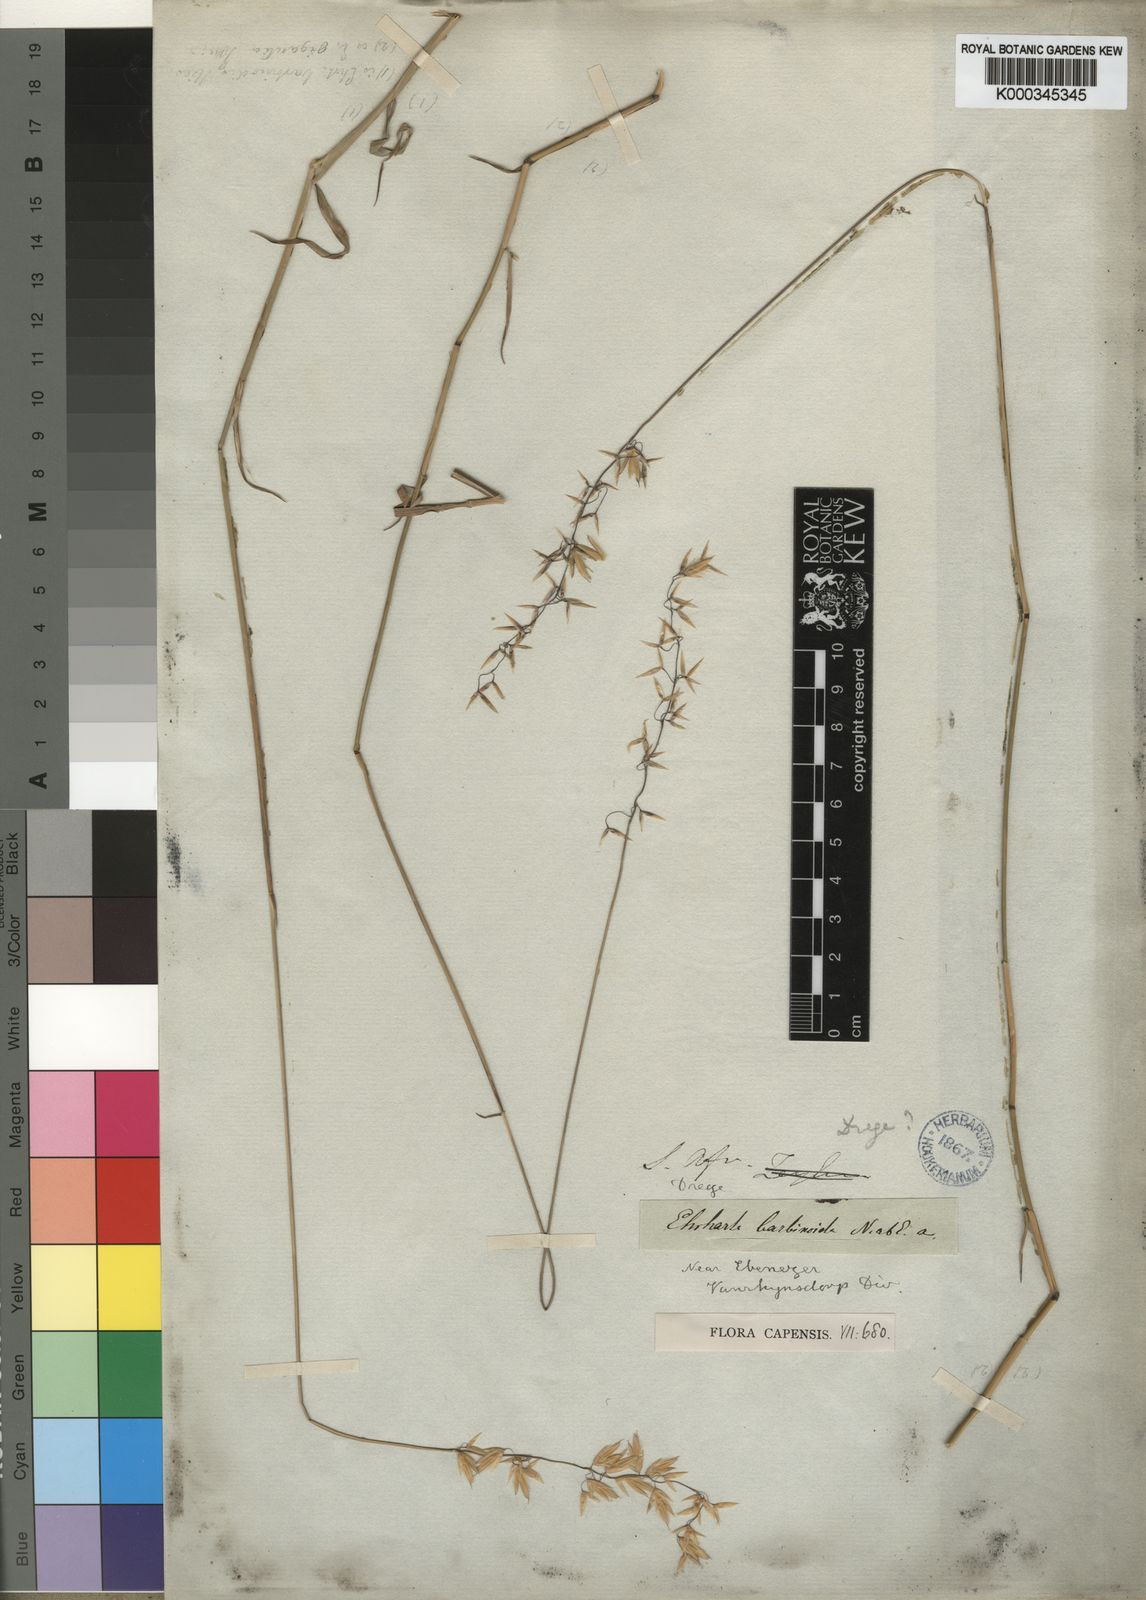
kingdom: Plantae
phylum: Tracheophyta
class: Liliopsida
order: Poales
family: Poaceae
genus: Ehrharta
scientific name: Ehrharta barbinodis
